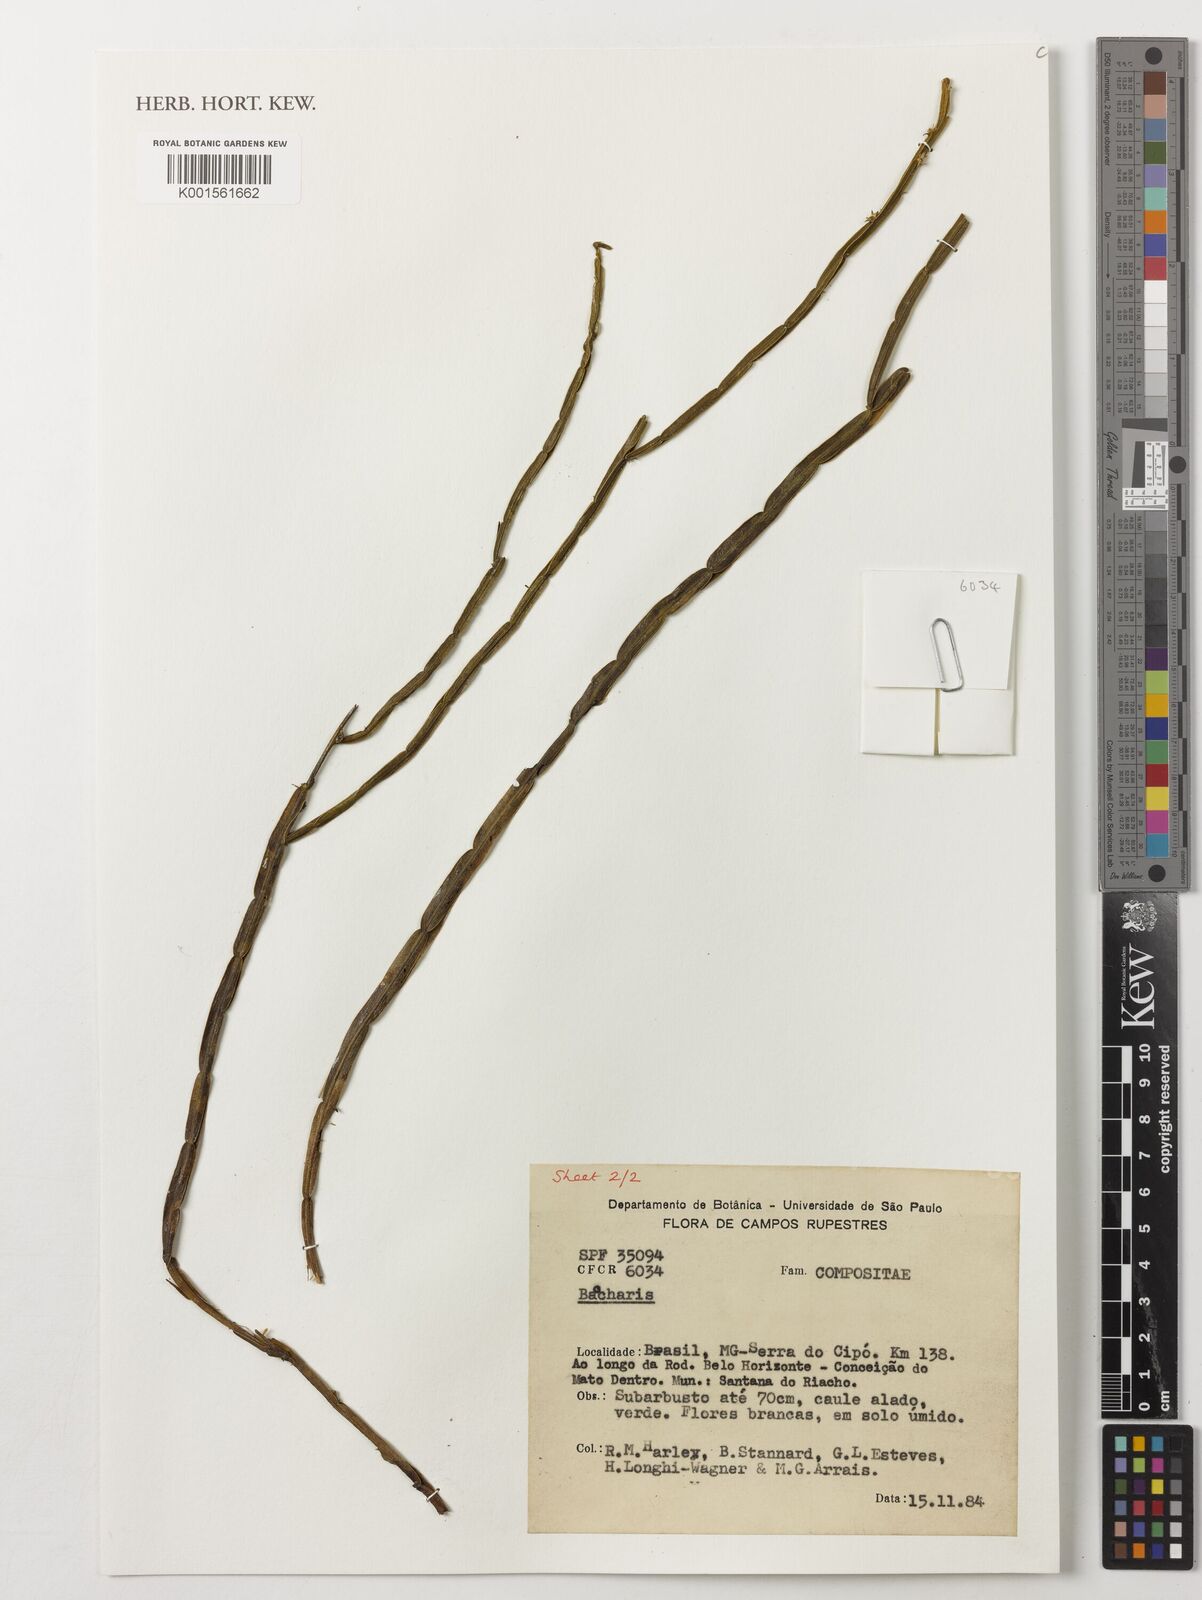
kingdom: Plantae
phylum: Tracheophyta
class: Magnoliopsida
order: Asterales
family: Asteraceae
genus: Baccharis
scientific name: Baccharis
